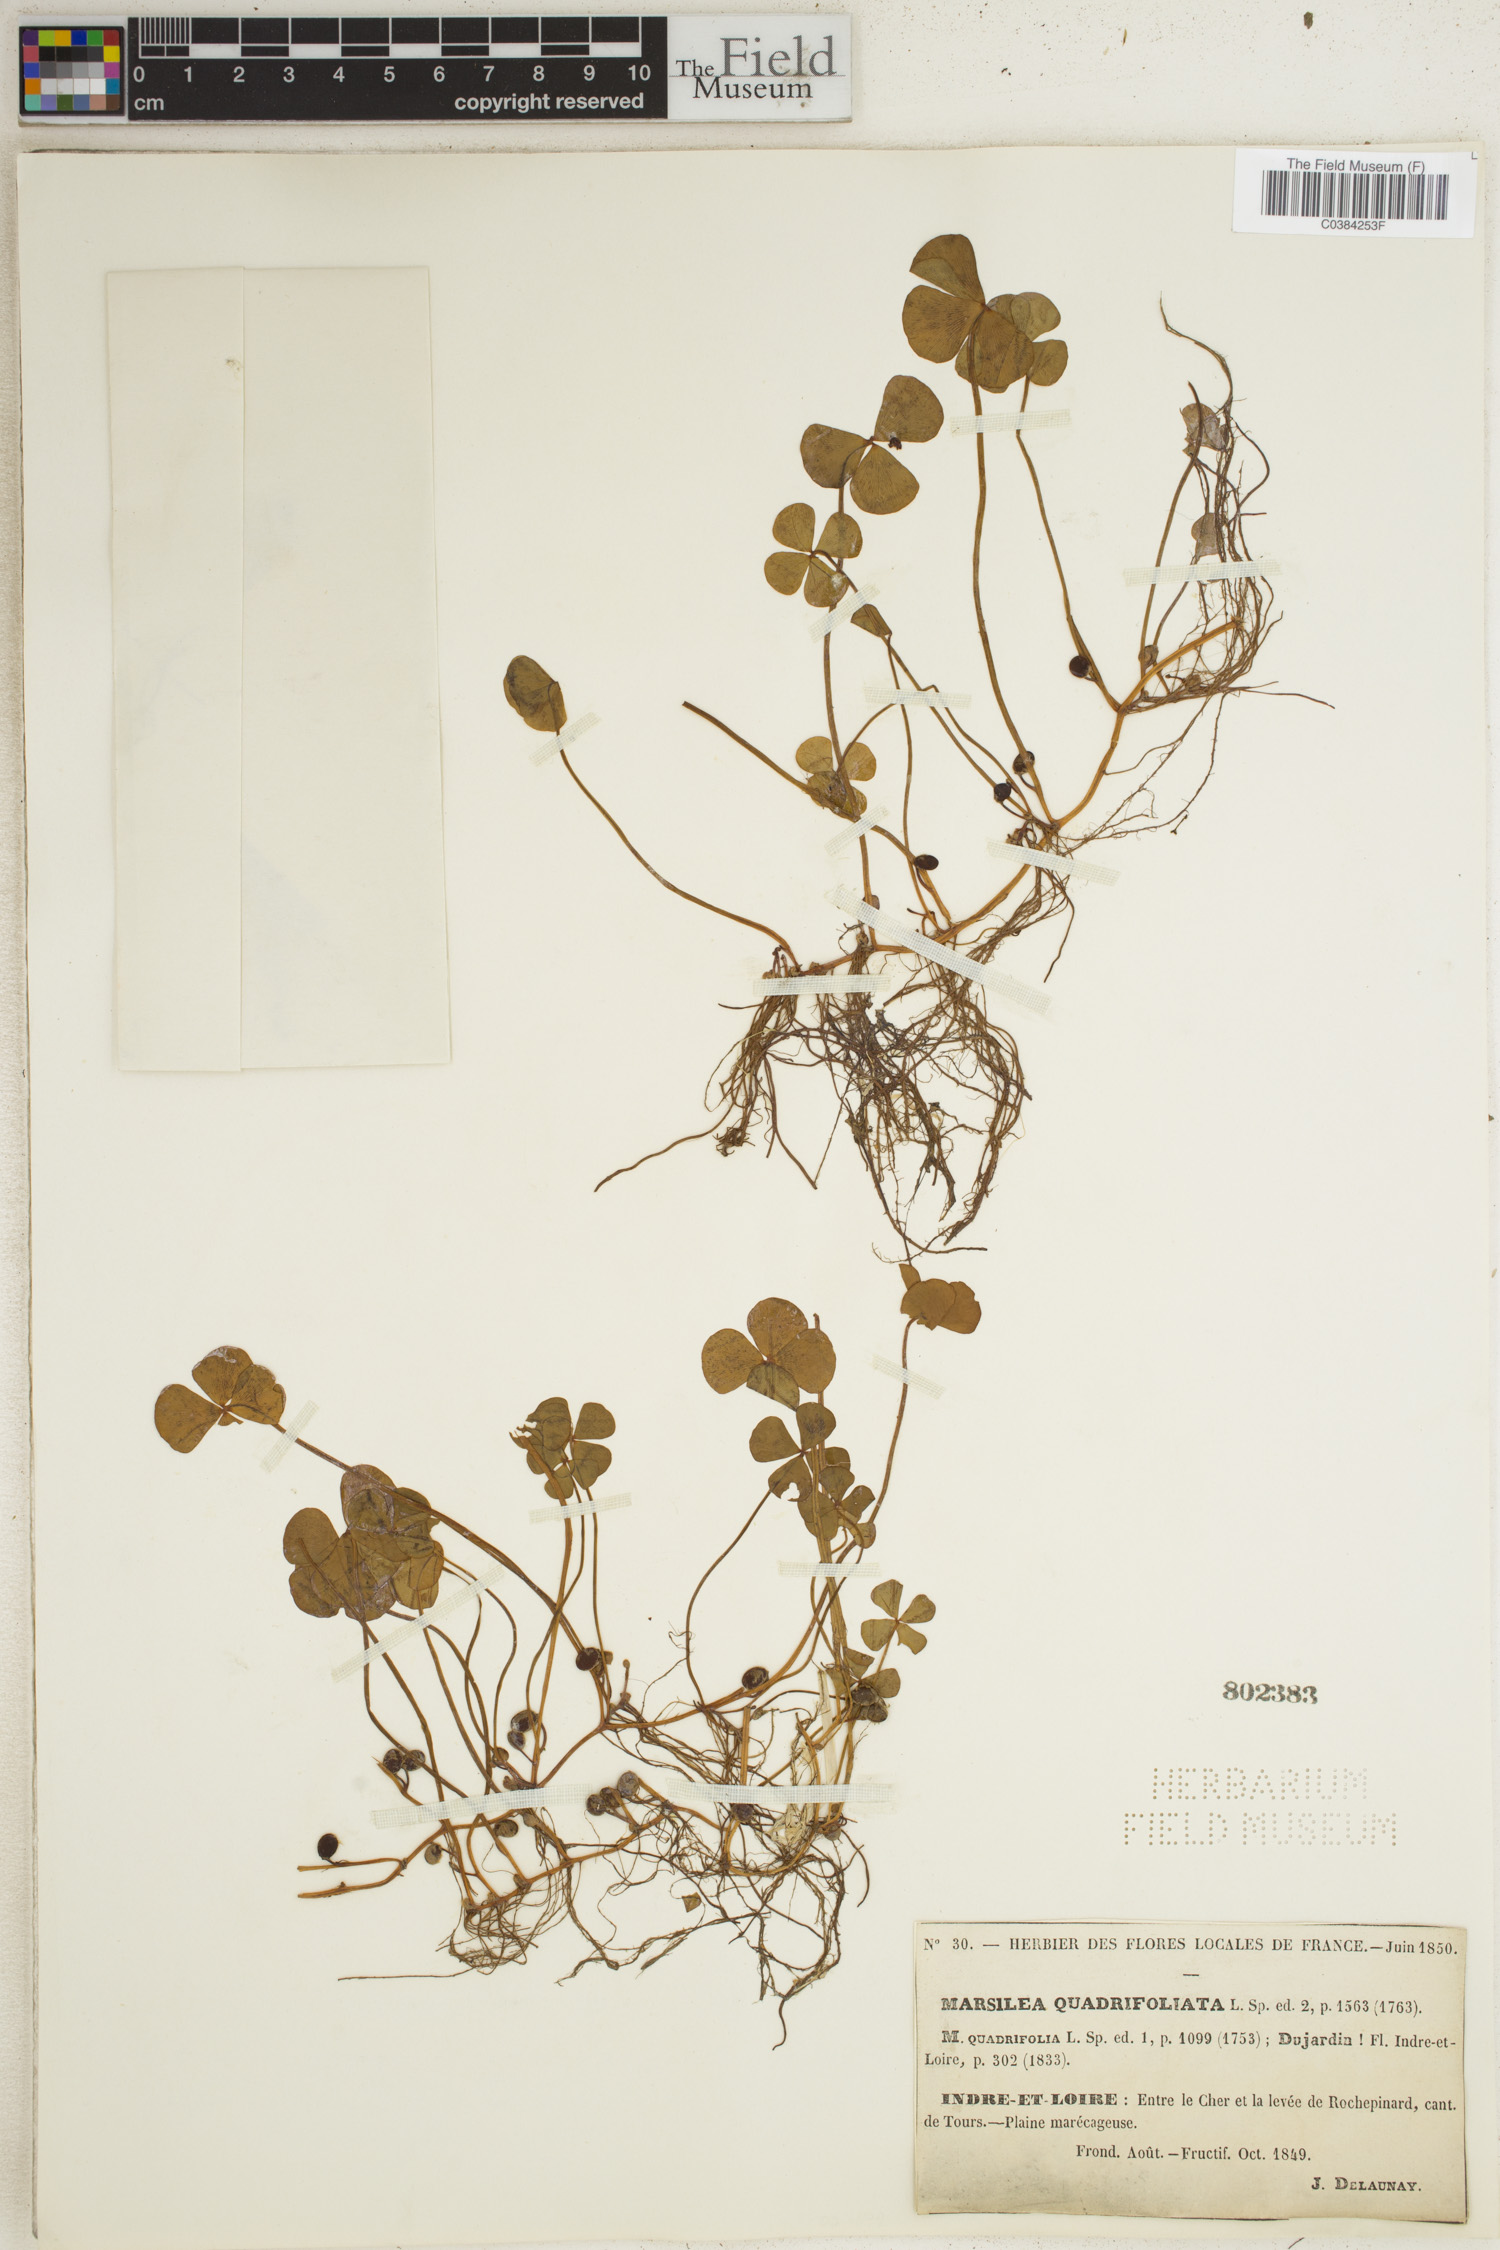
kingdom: Plantae
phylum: Tracheophyta
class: Polypodiopsida
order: Salviniales
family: Marsileaceae
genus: Marsilea
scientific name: Marsilea quadrifolia
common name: Water shamrock
